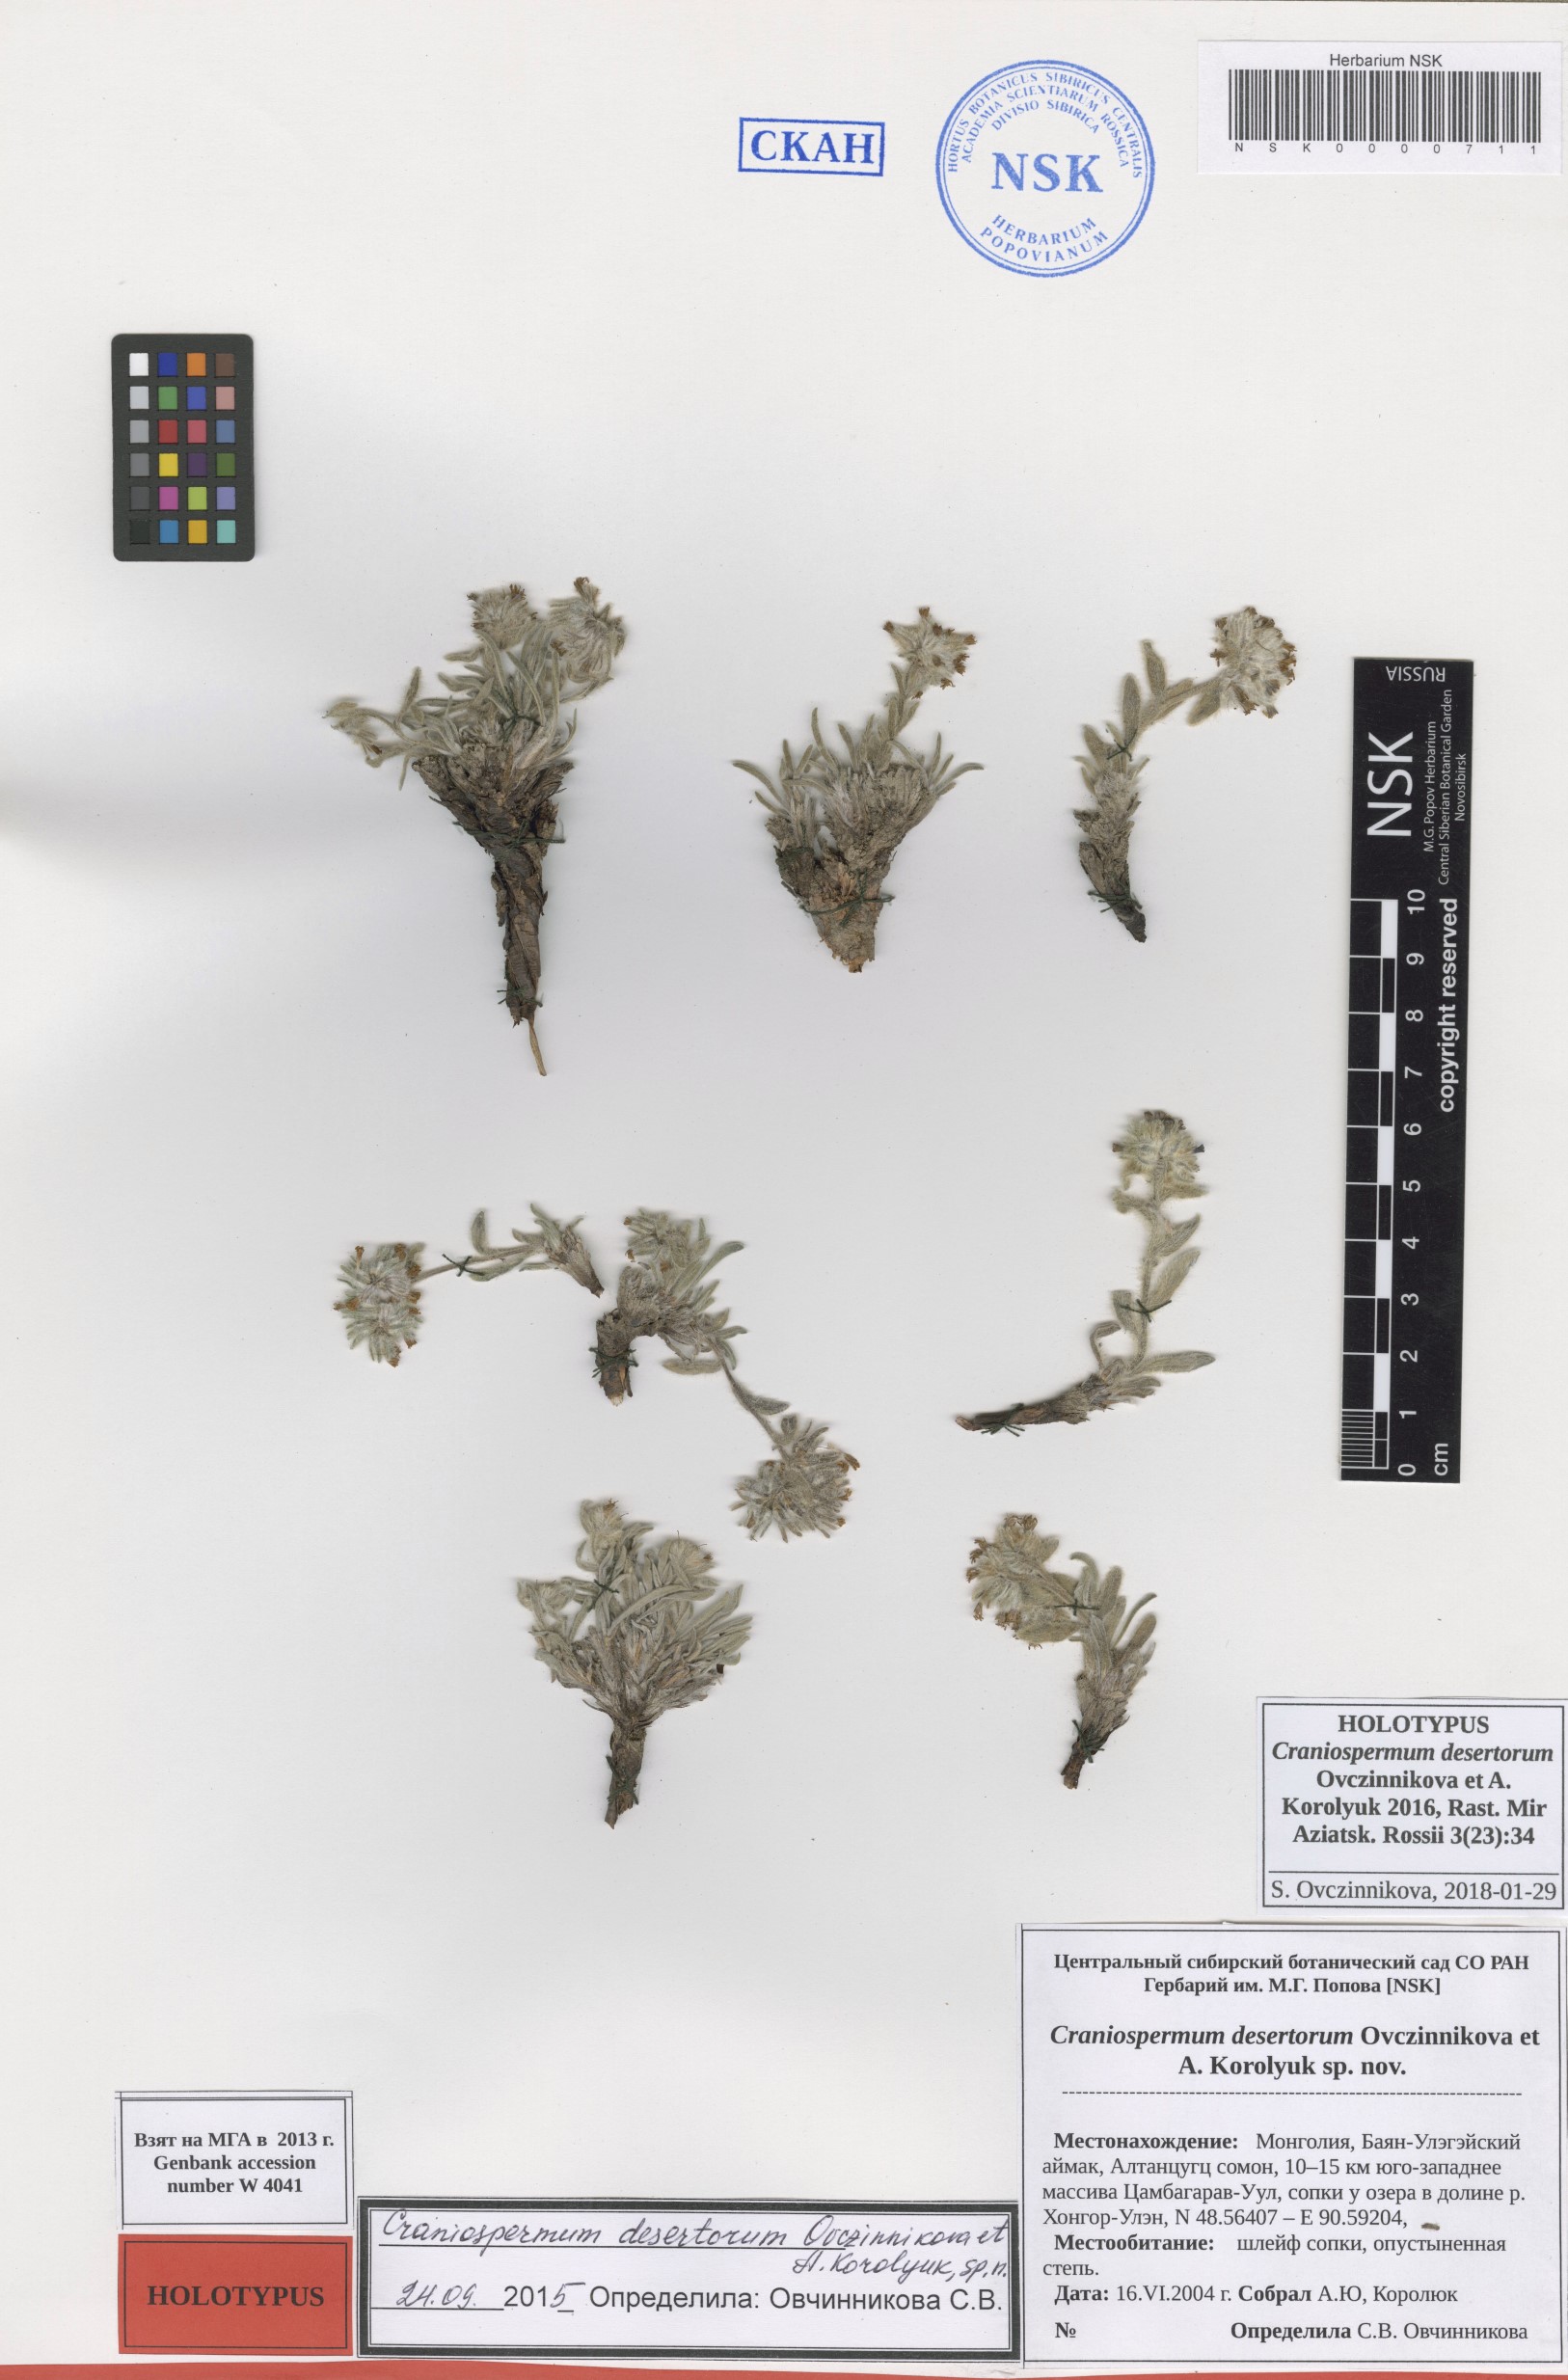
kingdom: Plantae
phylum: Tracheophyta
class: Magnoliopsida
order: Boraginales
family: Boraginaceae
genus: Craniospermum
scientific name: Craniospermum desertorum
